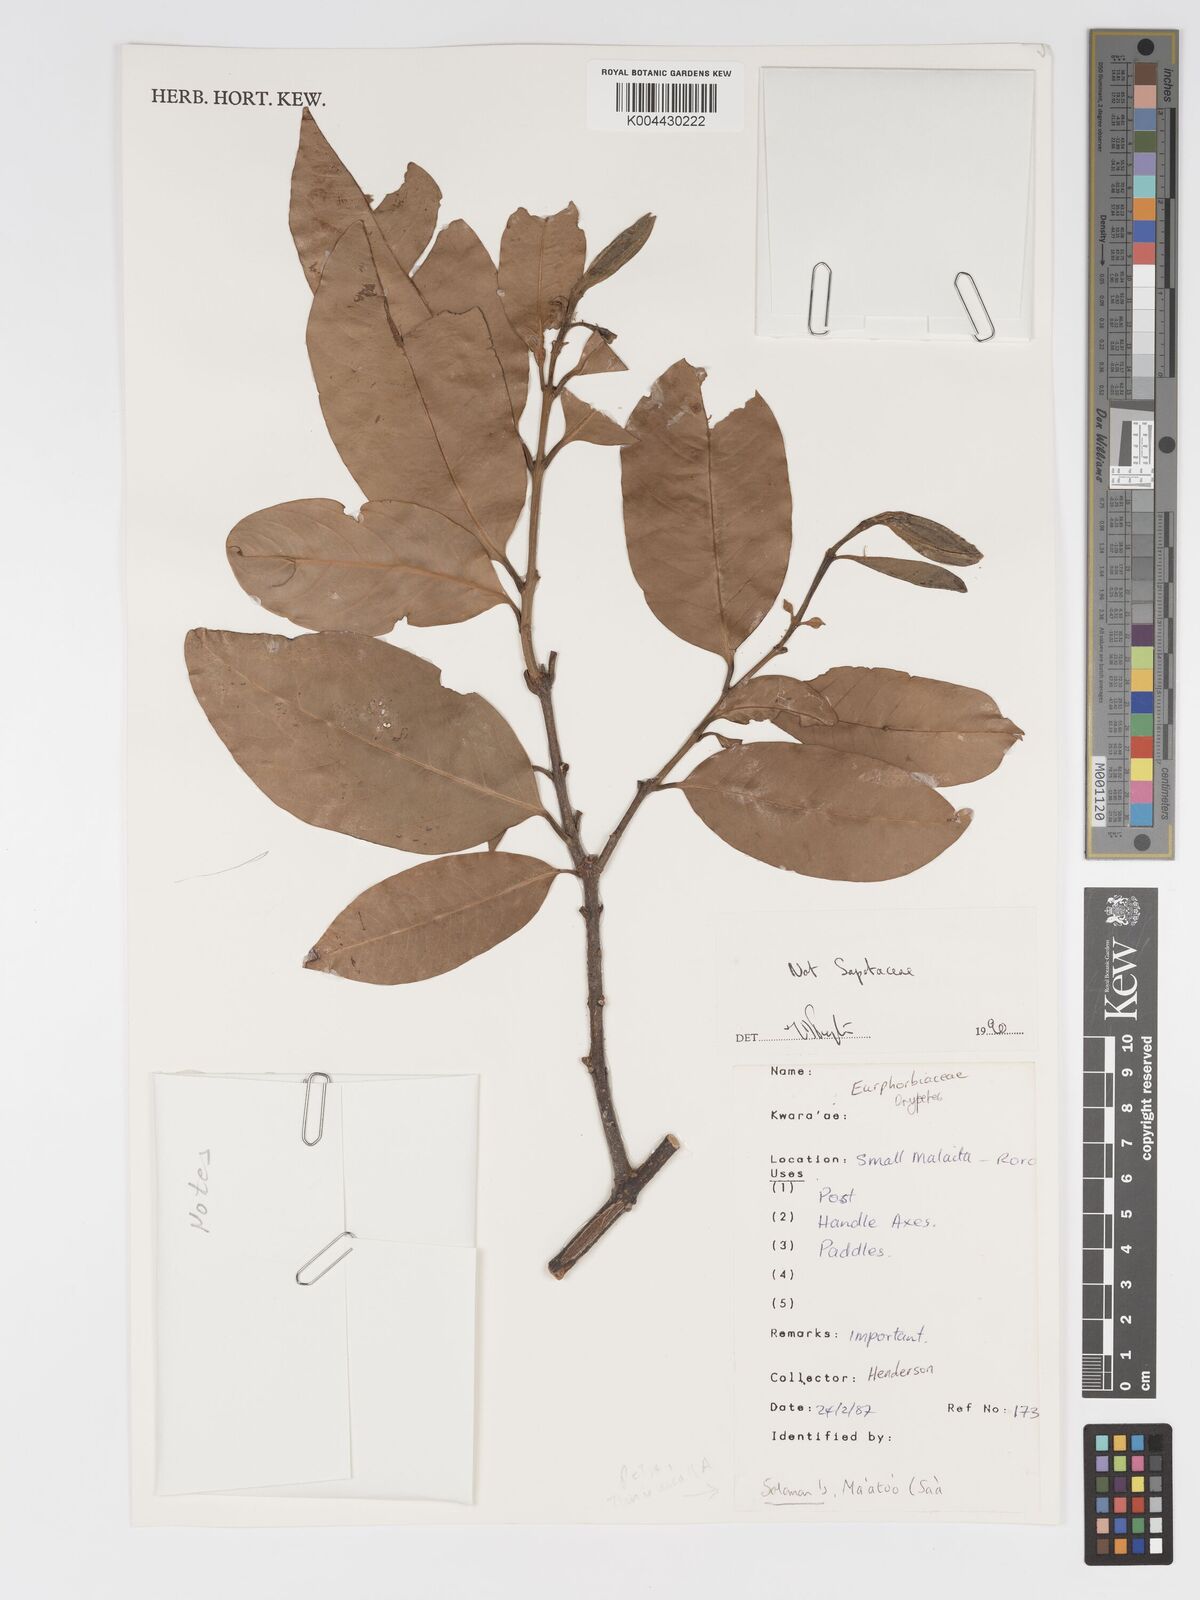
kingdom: Plantae
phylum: Tracheophyta
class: Magnoliopsida
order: Malpighiales
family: Putranjivaceae
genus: Drypetes
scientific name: Drypetes
